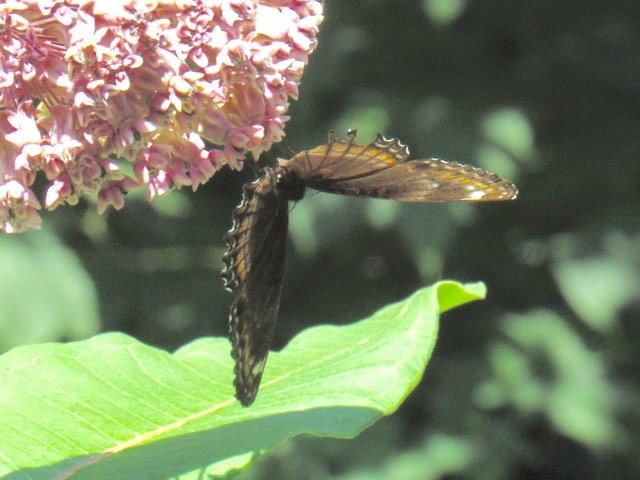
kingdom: Animalia
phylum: Arthropoda
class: Insecta
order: Lepidoptera
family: Nymphalidae
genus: Limenitis
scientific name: Limenitis
